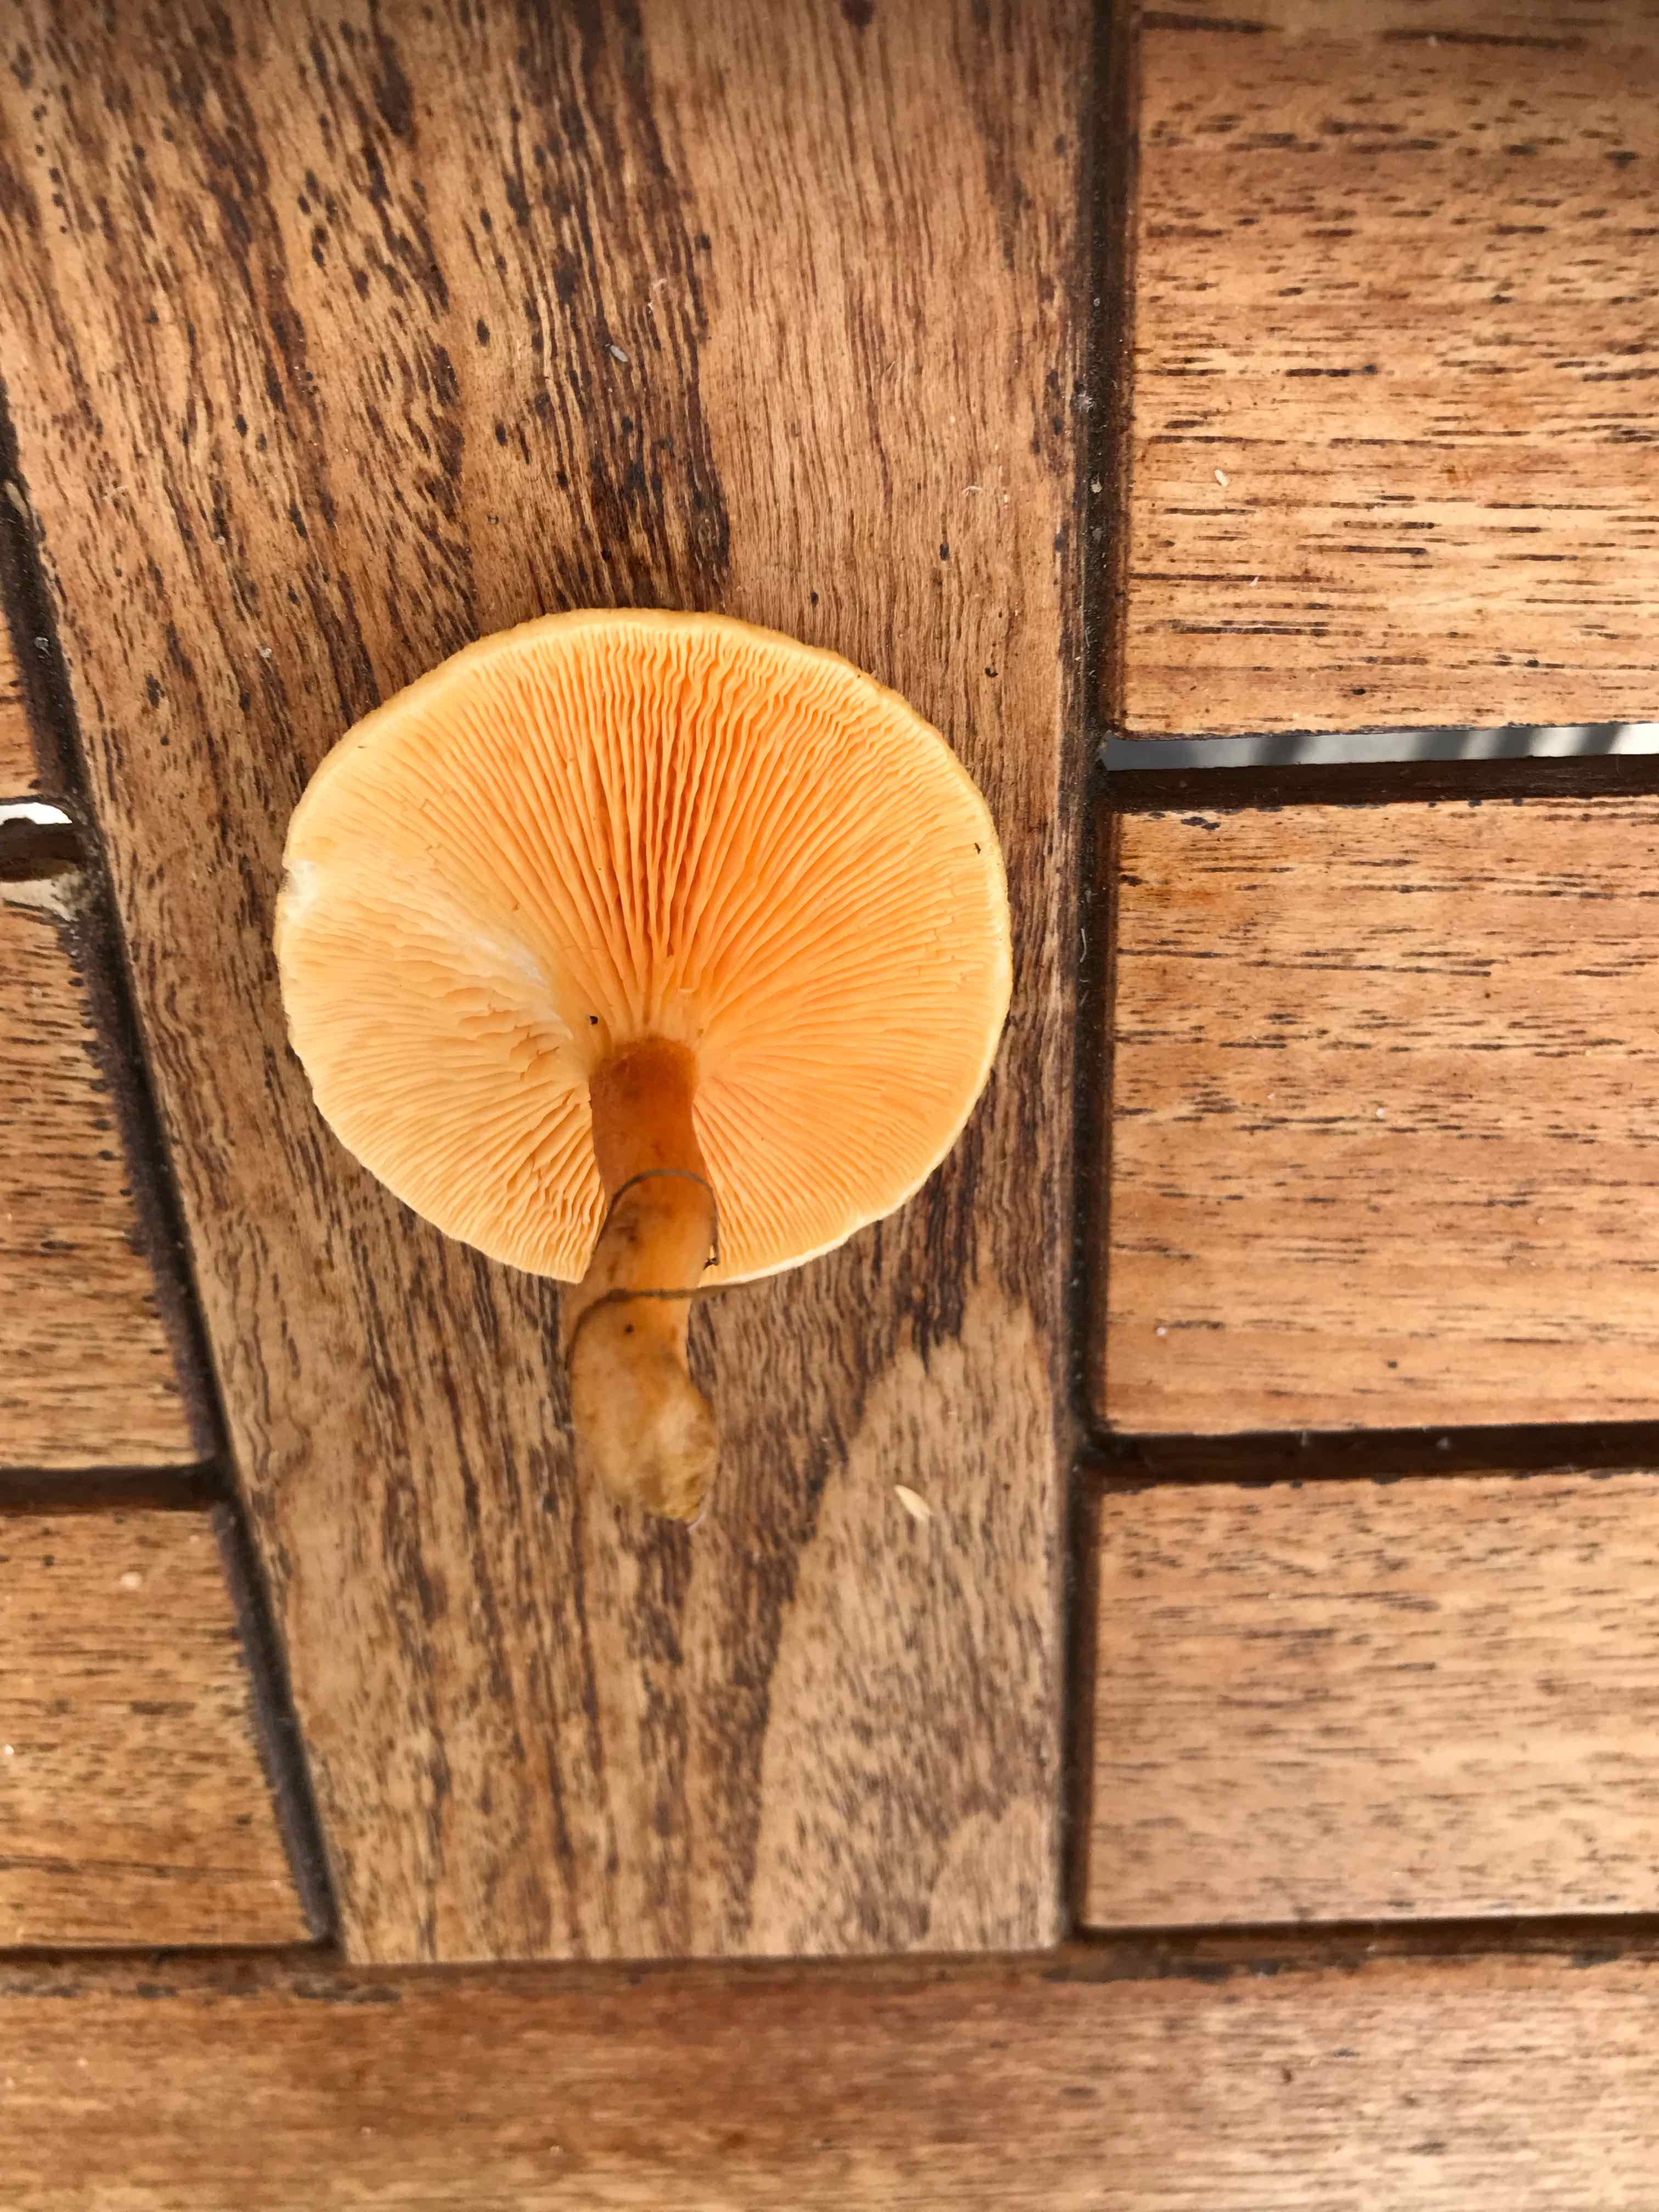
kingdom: Fungi
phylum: Basidiomycota
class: Agaricomycetes
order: Boletales
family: Hygrophoropsidaceae
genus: Hygrophoropsis
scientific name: Hygrophoropsis aurantiaca
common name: almindelig orangekantarel
